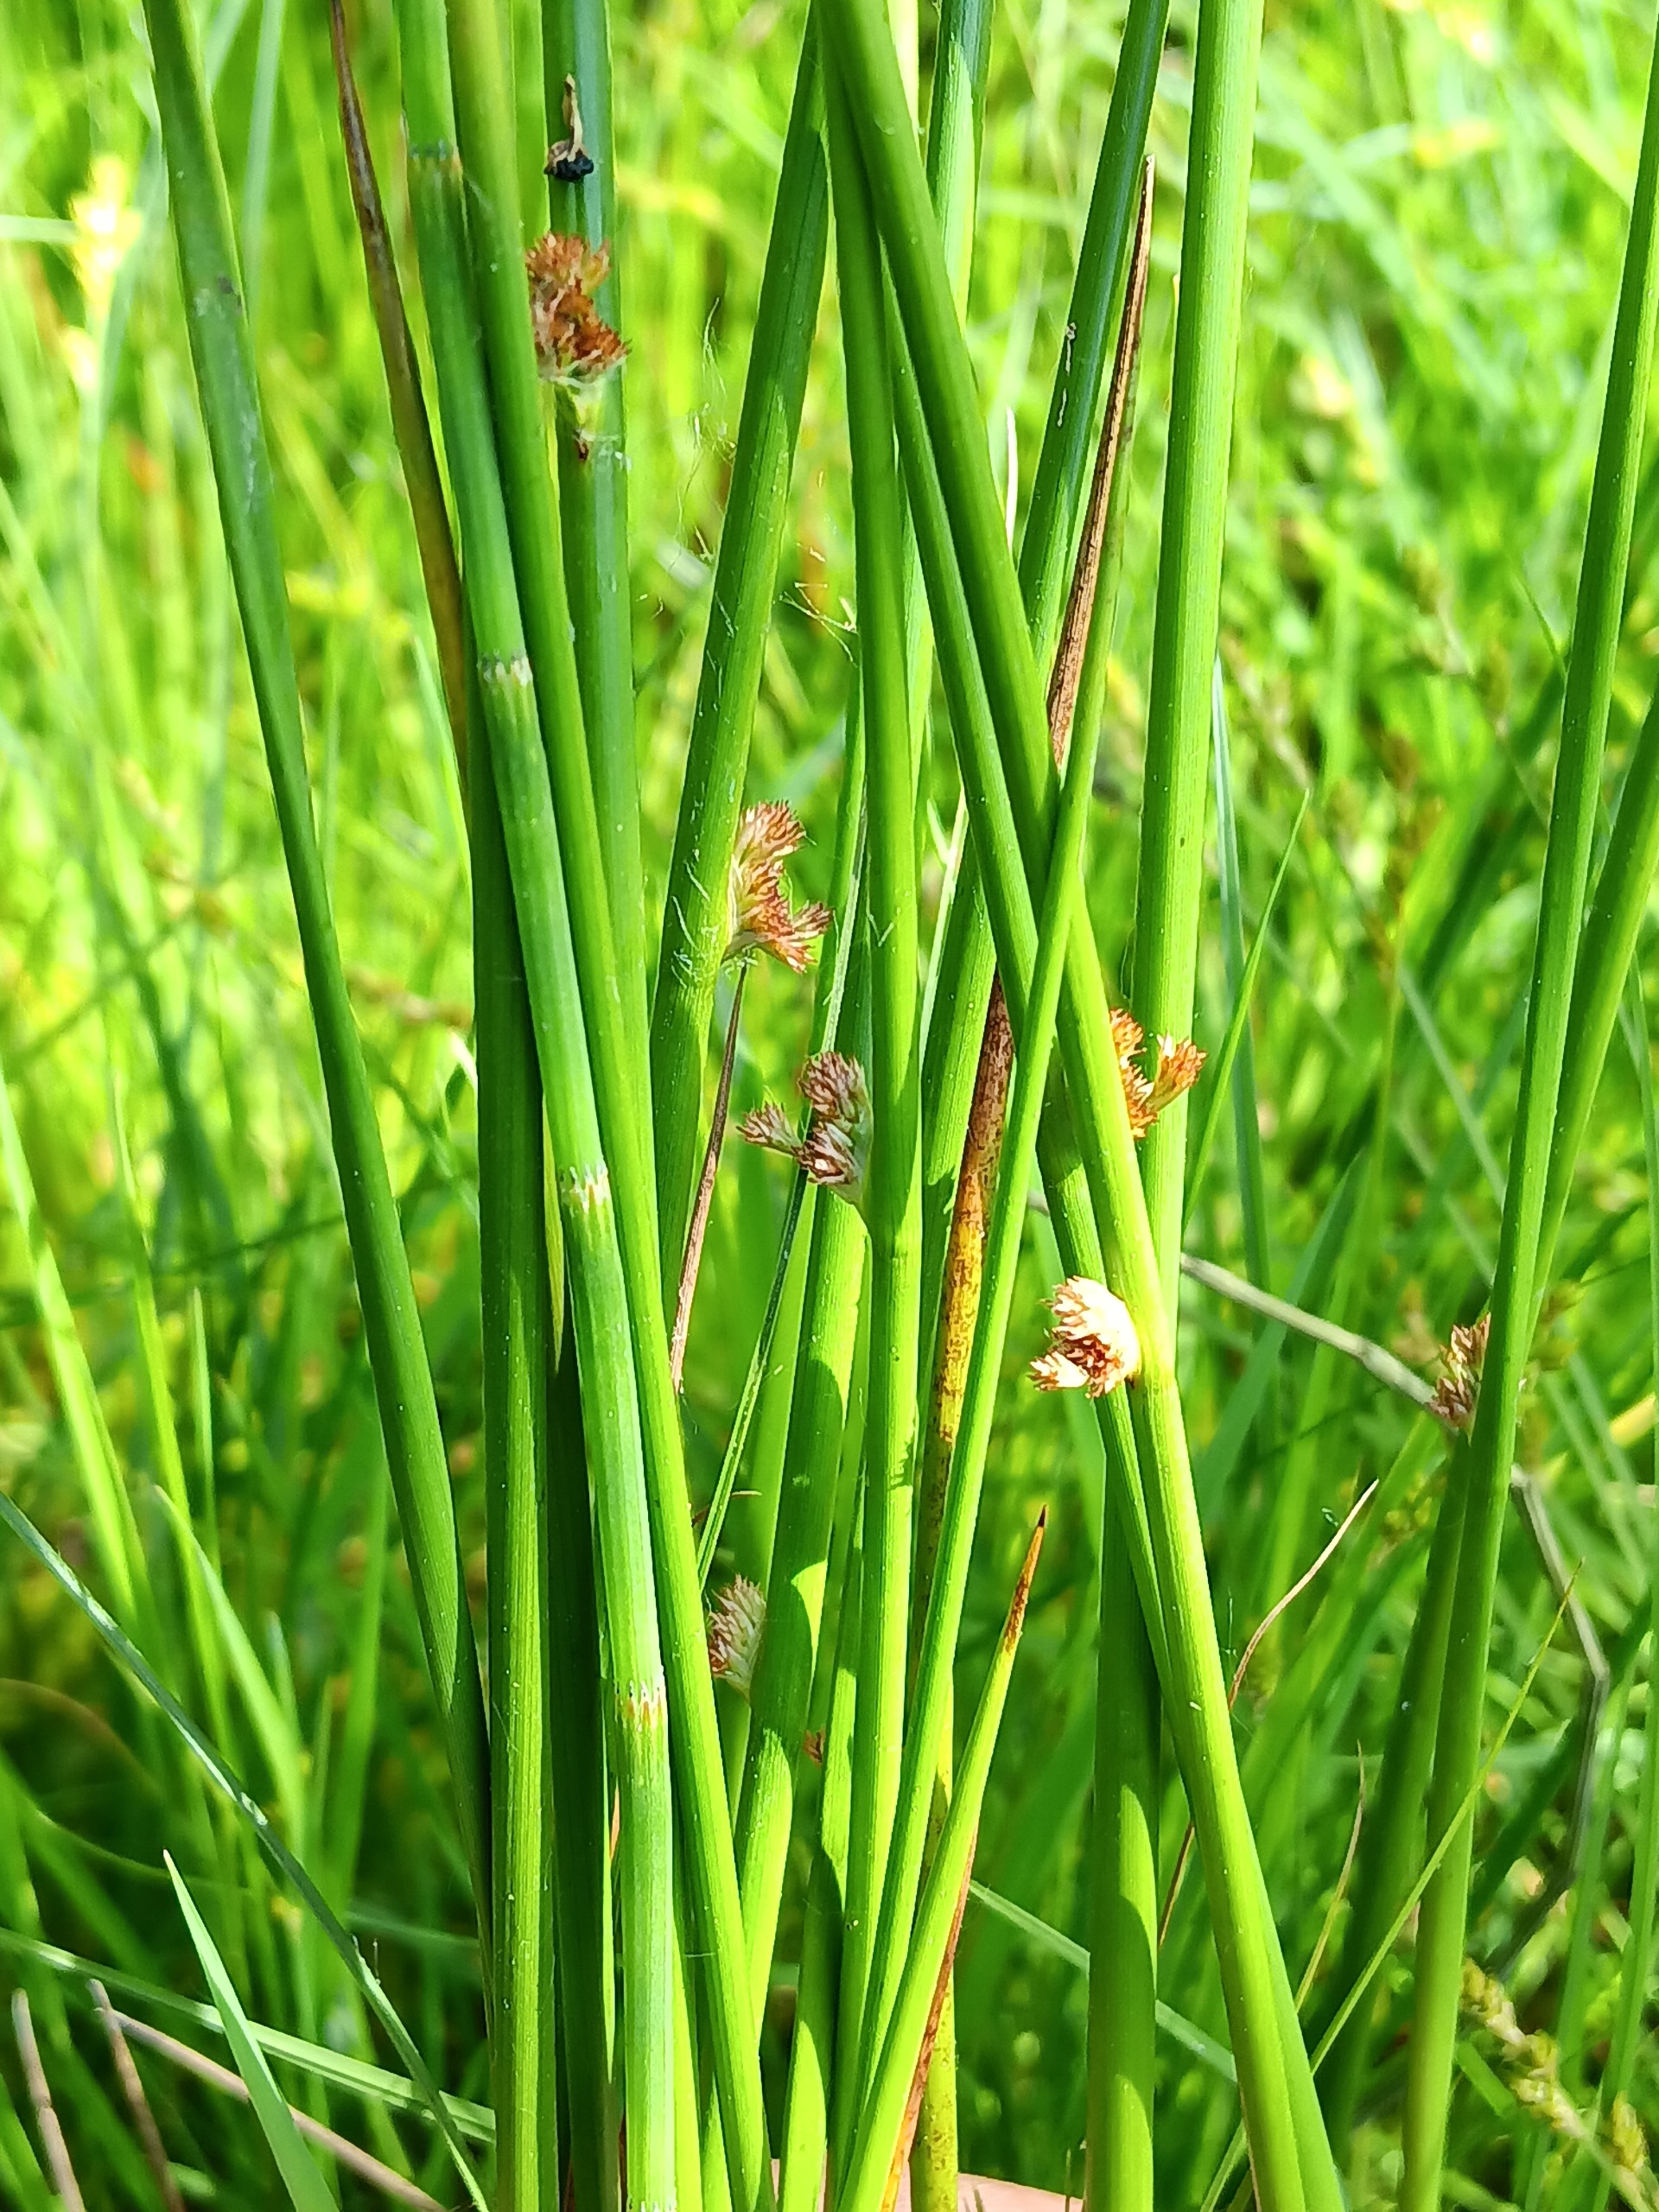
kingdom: Plantae
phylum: Tracheophyta
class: Liliopsida
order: Poales
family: Juncaceae
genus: Juncus
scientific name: Juncus effusus
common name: Lyse-siv
